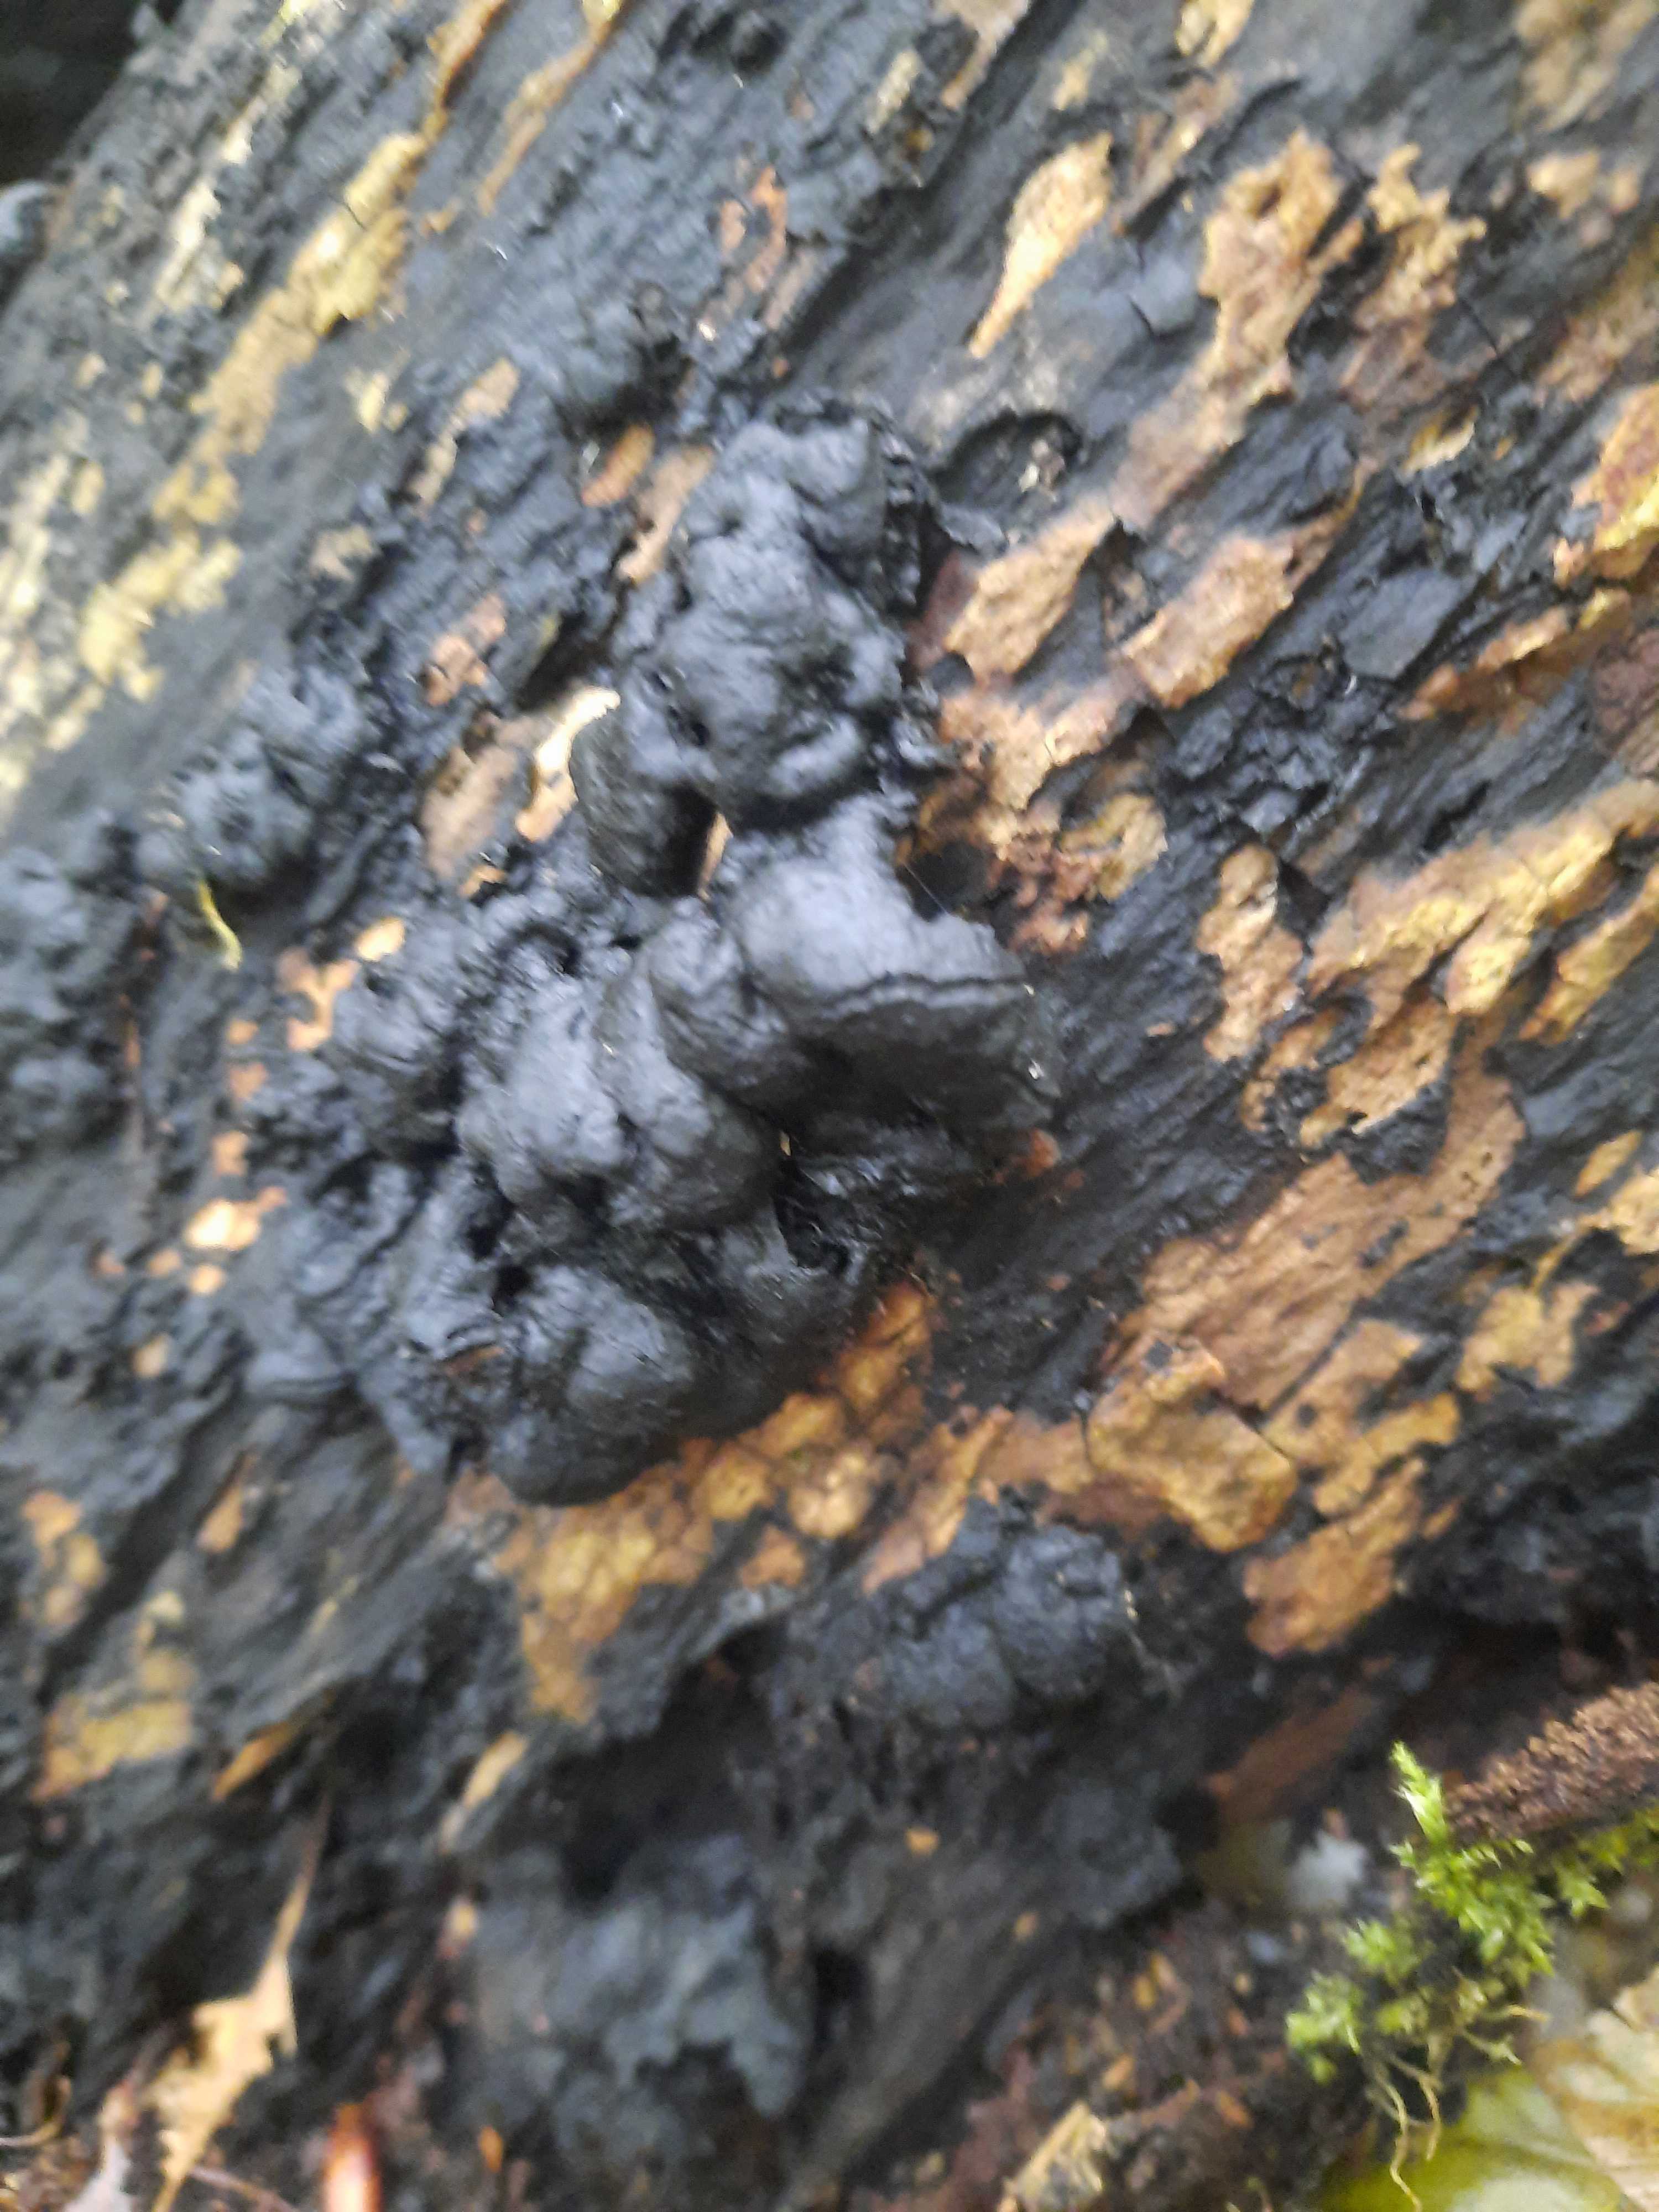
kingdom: Fungi
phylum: Ascomycota
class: Sordariomycetes
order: Xylariales
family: Xylariaceae
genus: Kretzschmaria
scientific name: Kretzschmaria deusta
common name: stor kulsvamp
